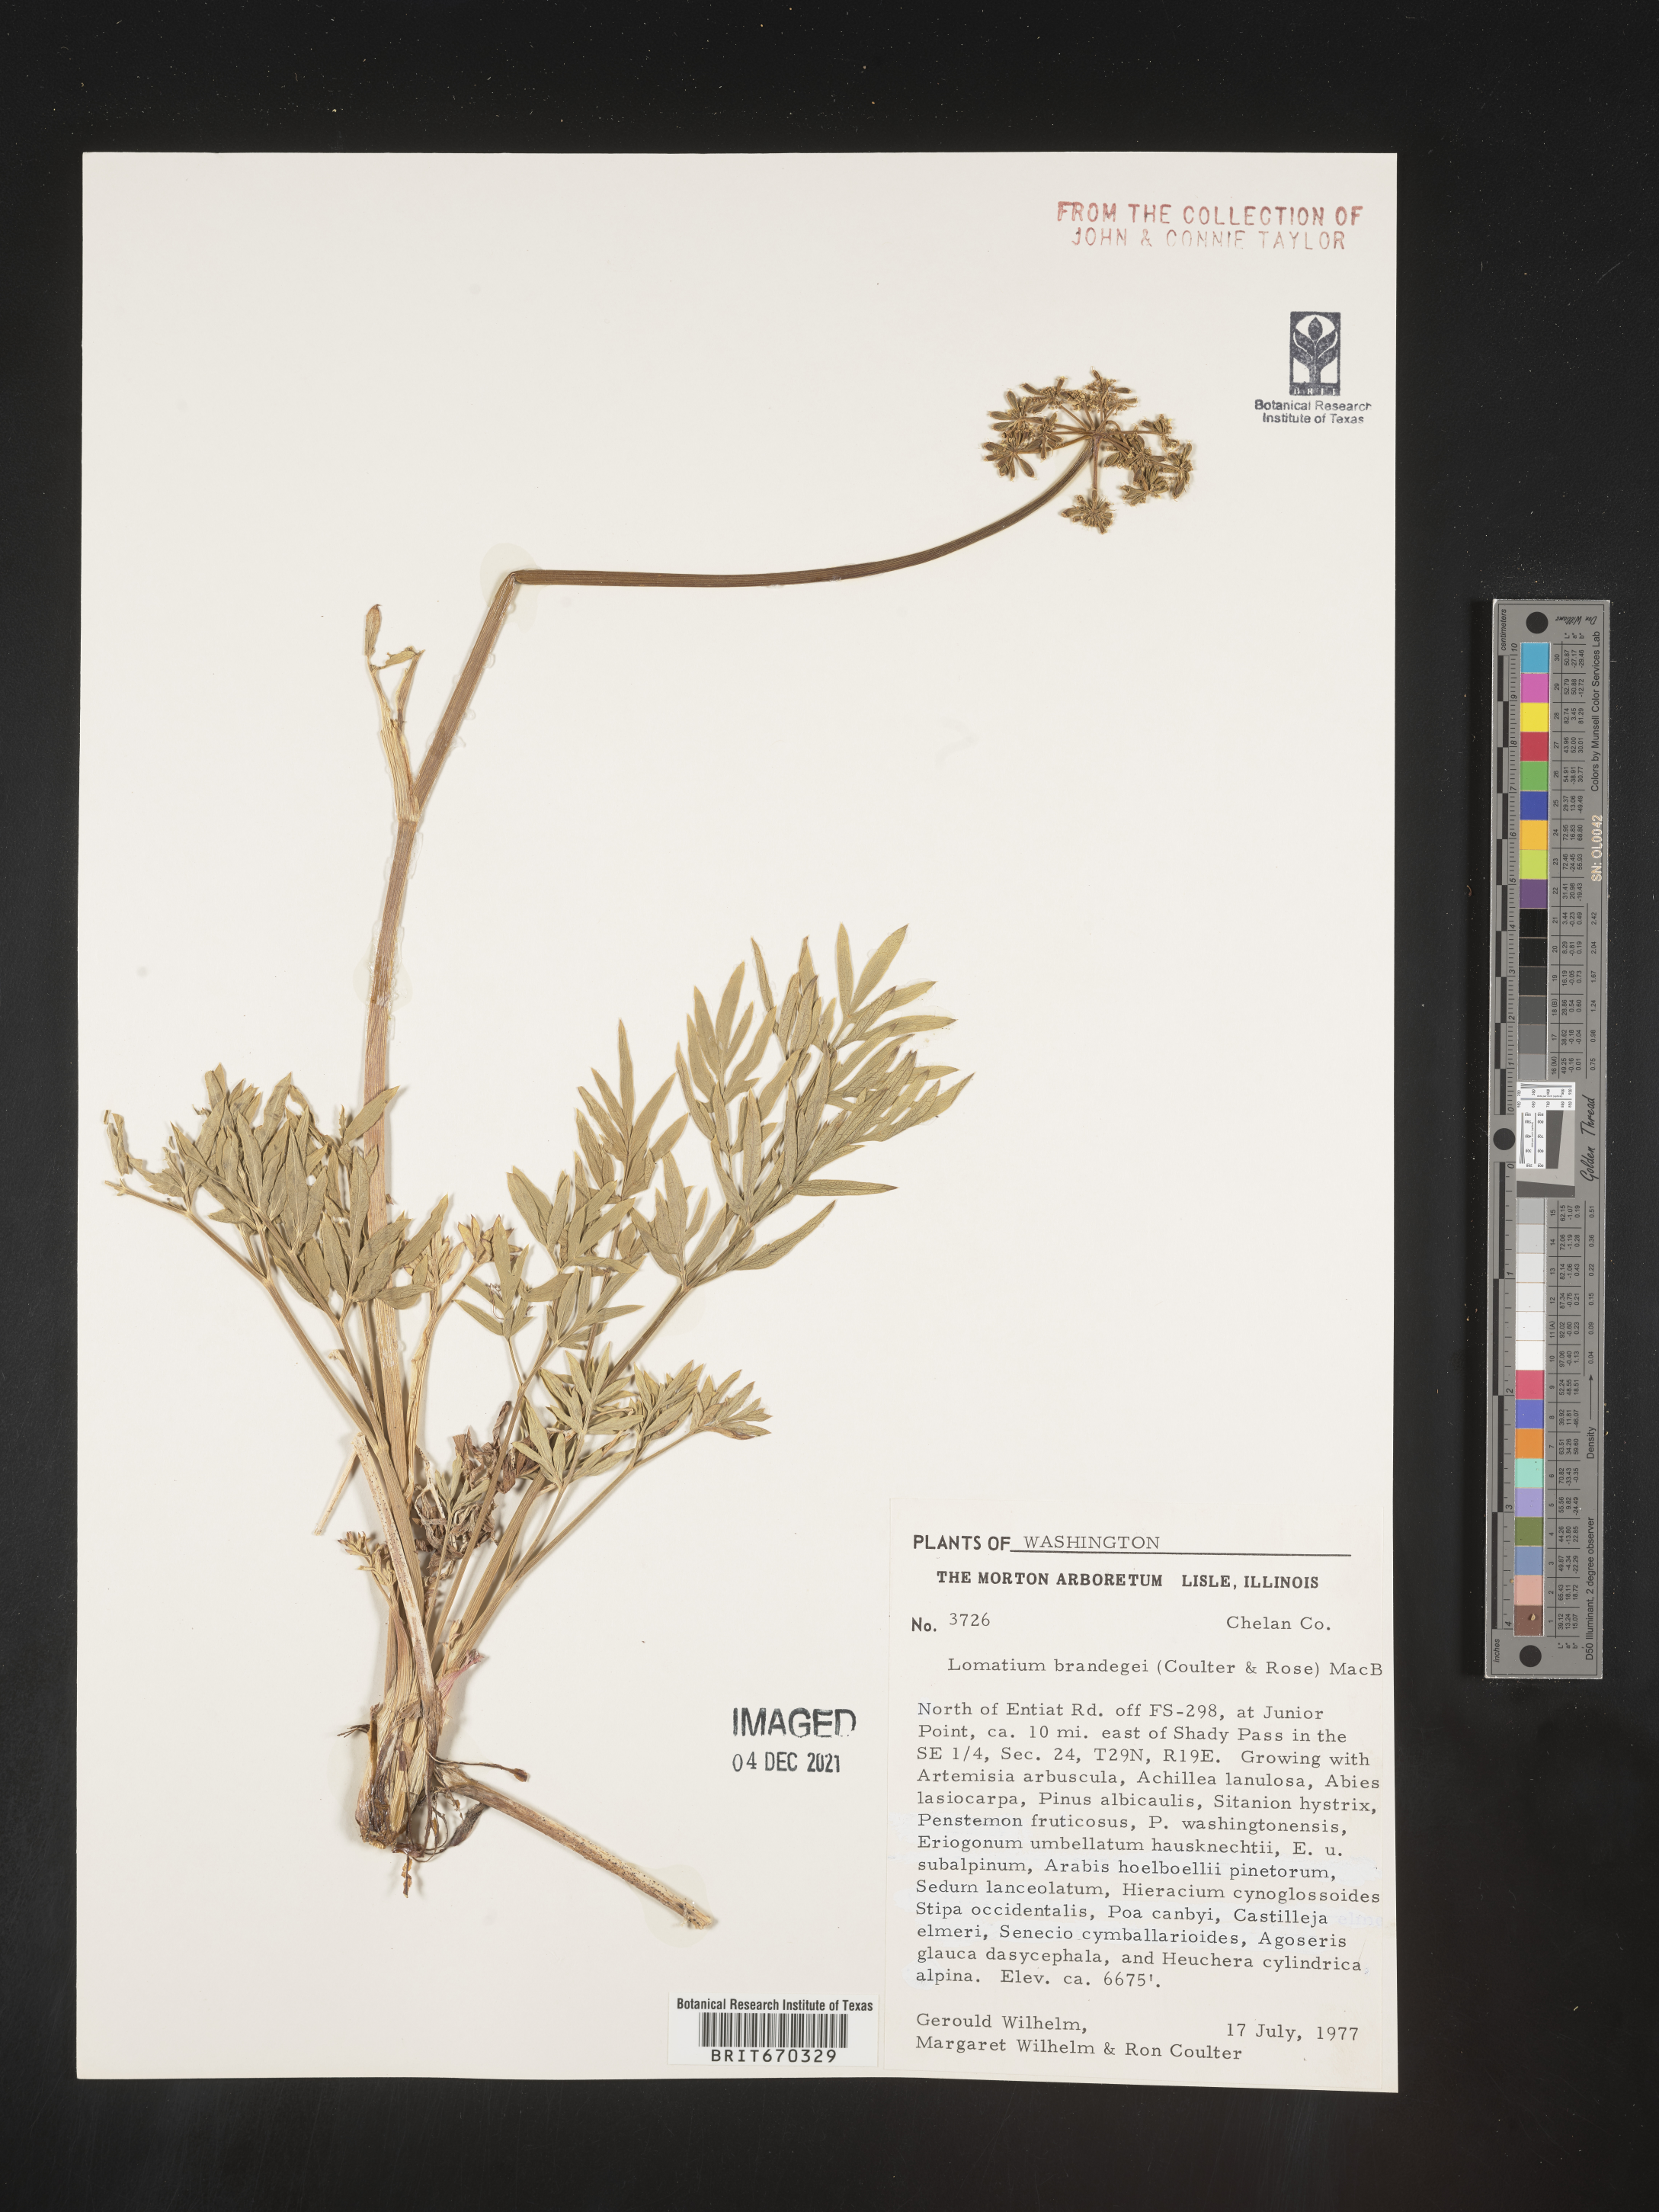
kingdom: Plantae
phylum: Tracheophyta
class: Magnoliopsida
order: Apiales
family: Apiaceae
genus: Lomatium
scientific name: Lomatium brandegeei
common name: Brandegee's desert-parsley
